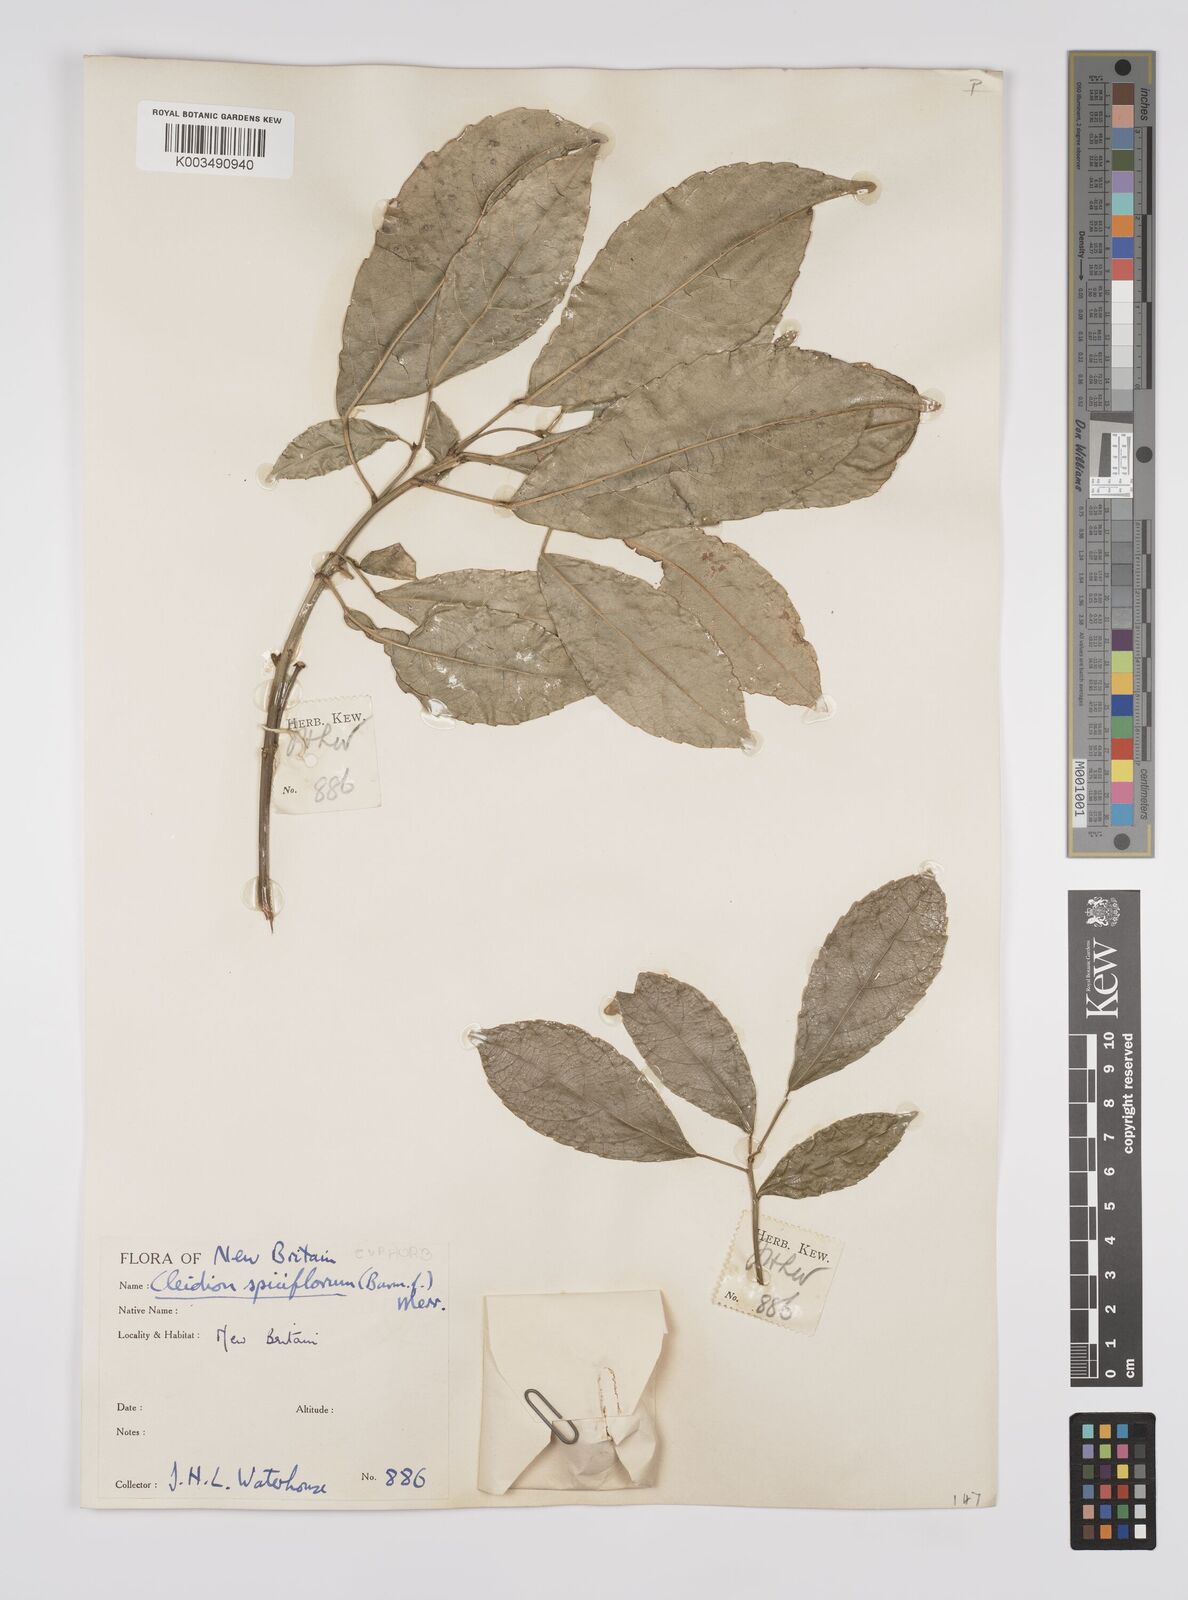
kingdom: Plantae
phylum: Tracheophyta
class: Magnoliopsida
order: Malpighiales
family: Euphorbiaceae
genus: Cleidion
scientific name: Cleidion javanicum
